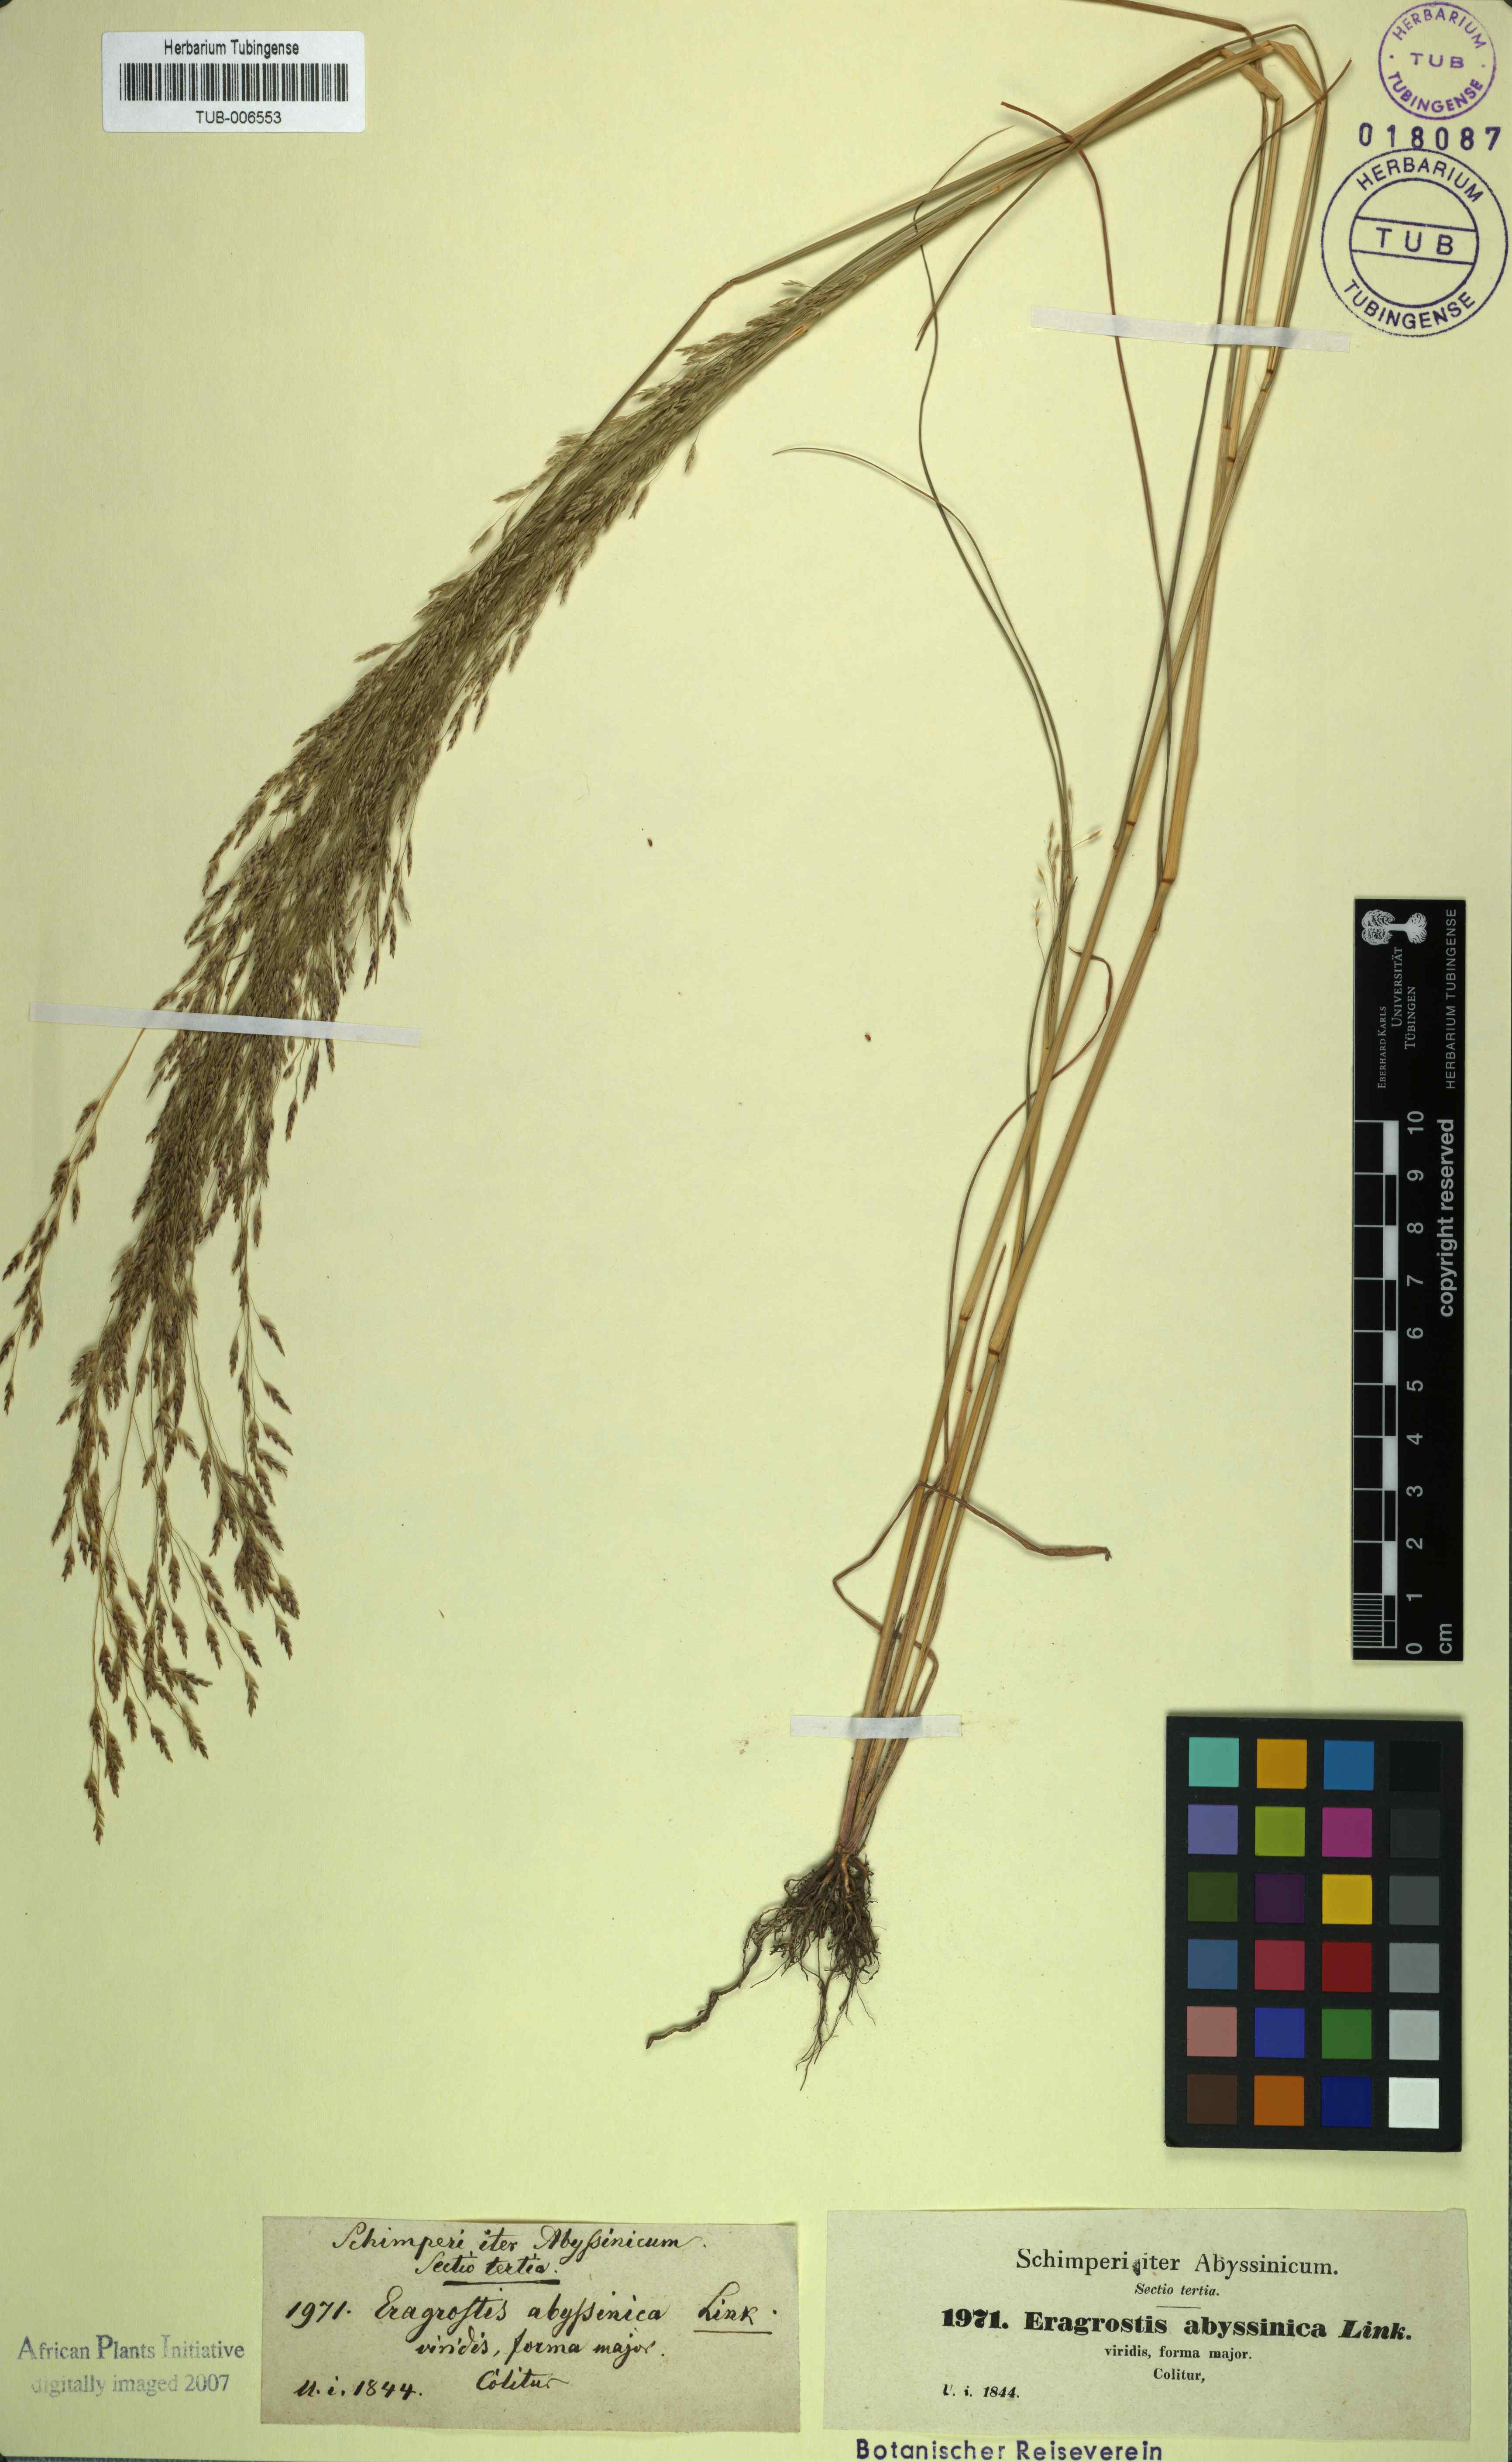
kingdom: Plantae
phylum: Tracheophyta
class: Liliopsida
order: Poales
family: Poaceae
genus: Eragrostis
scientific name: Eragrostis tef
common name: Teff
